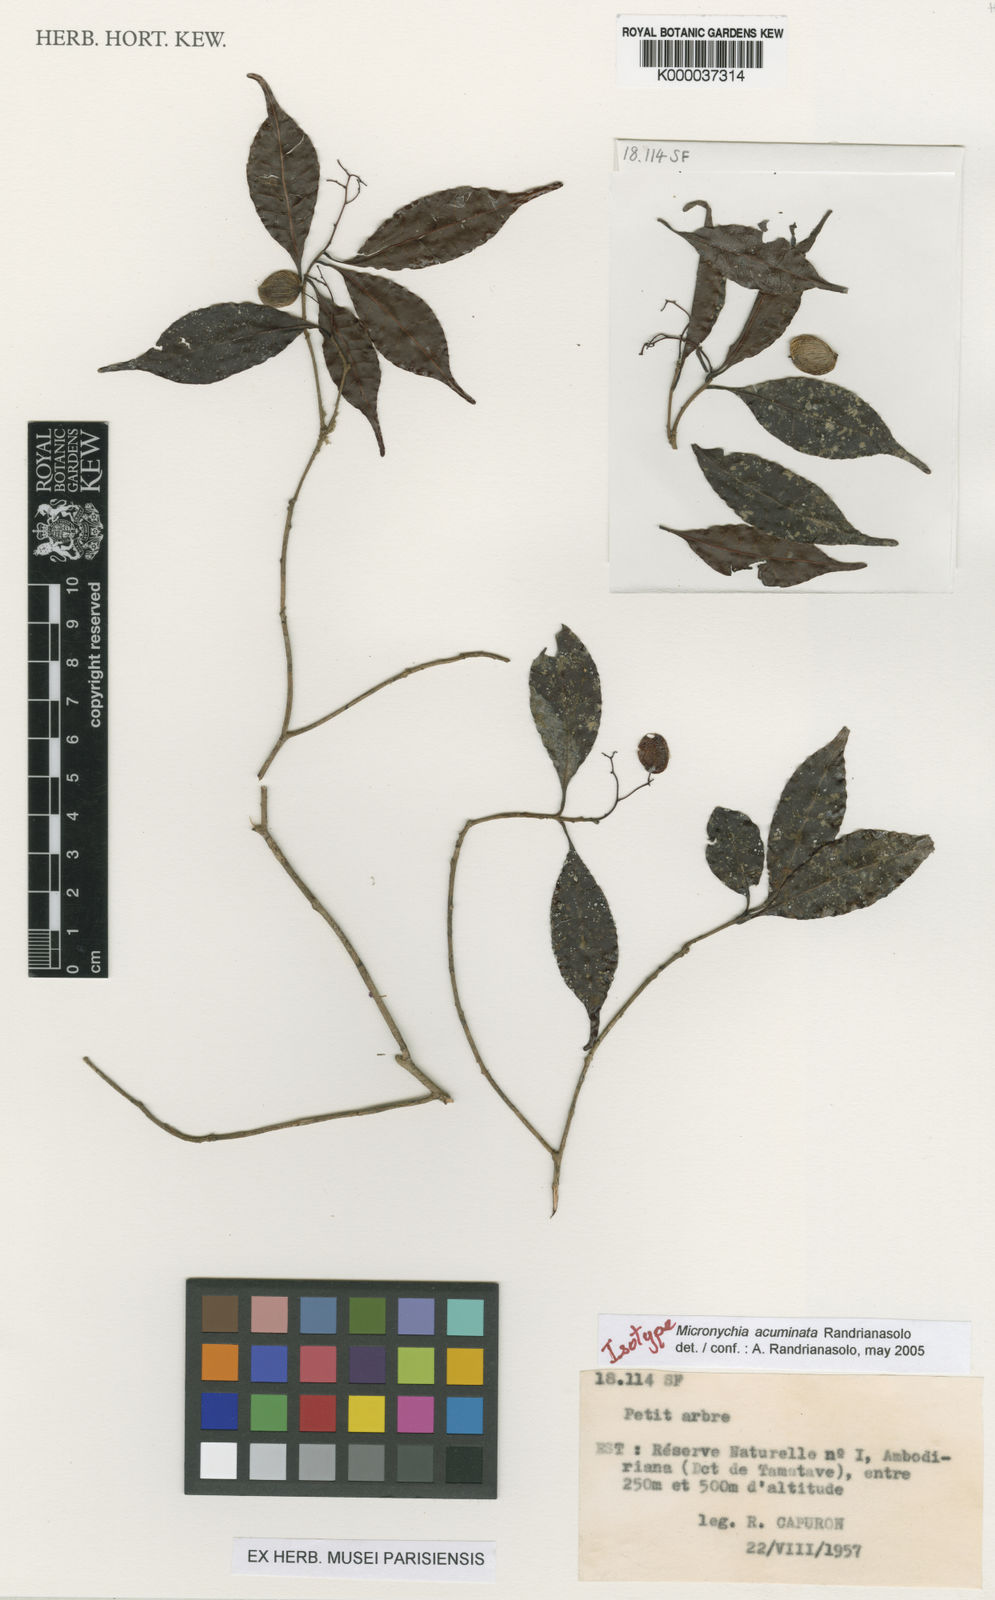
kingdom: Plantae
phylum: Tracheophyta
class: Magnoliopsida
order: Sapindales
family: Anacardiaceae
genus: Micronychia
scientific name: Micronychia acuminata
